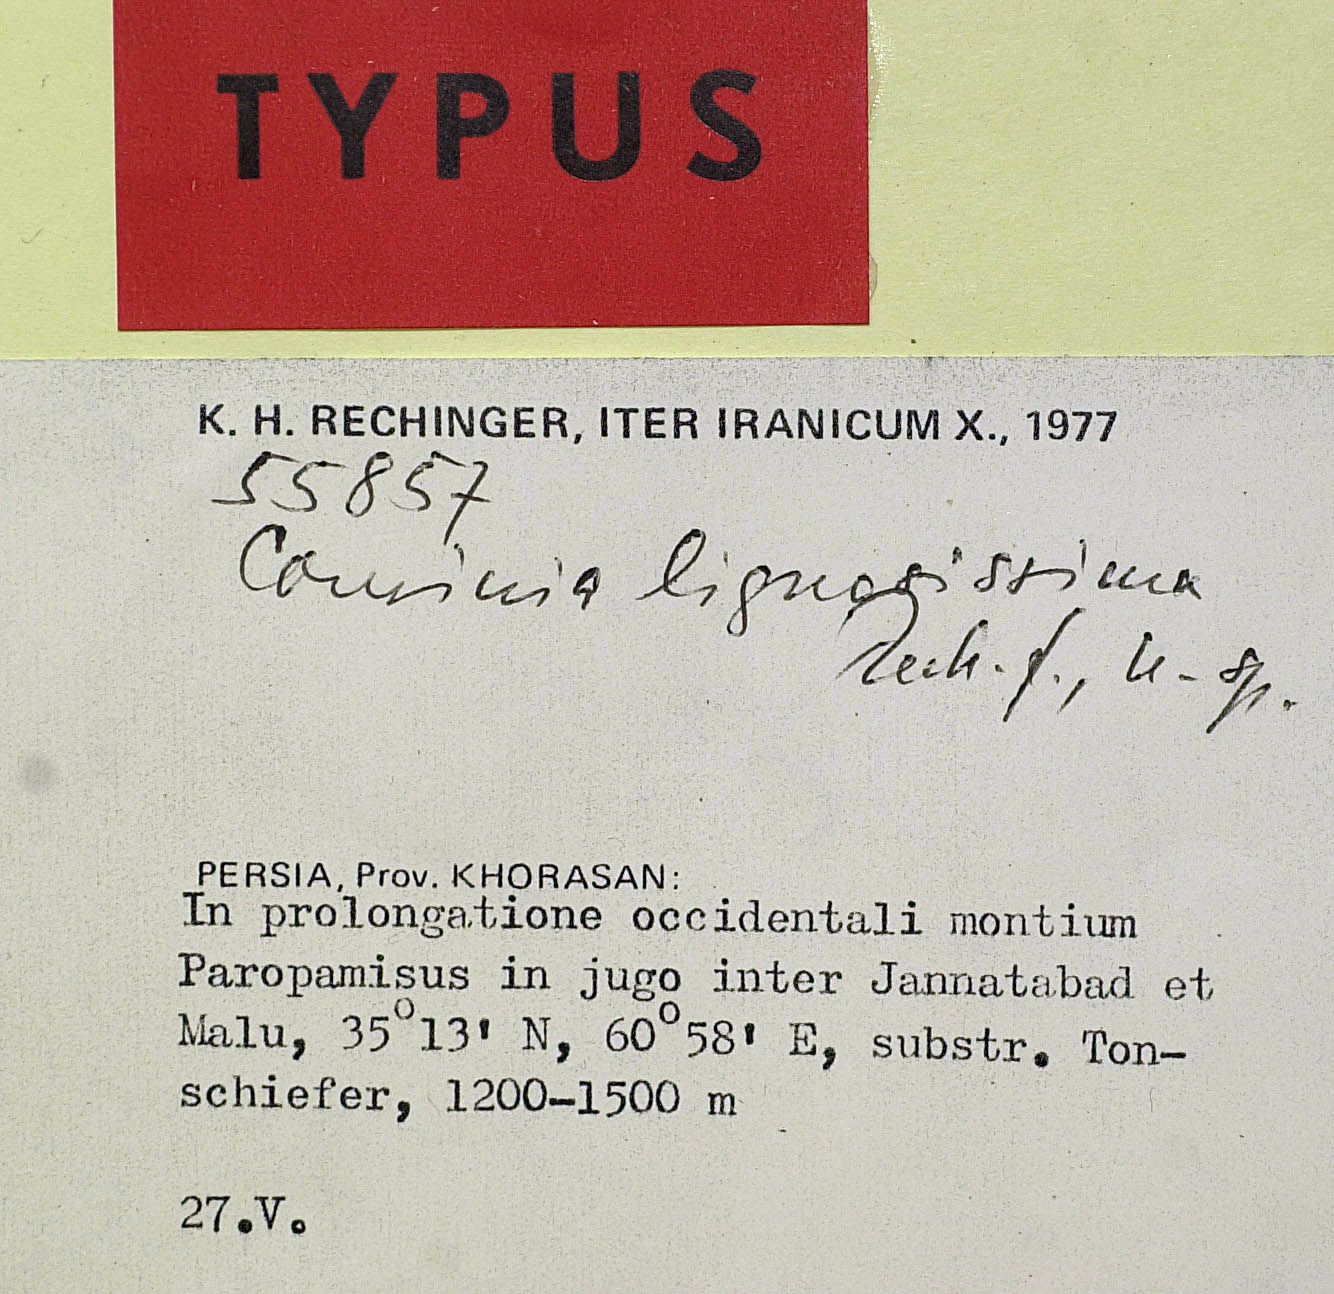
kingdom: Plantae
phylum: Tracheophyta
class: Magnoliopsida
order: Asterales
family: Asteraceae
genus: Cousinia
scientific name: Cousinia lignosissima
